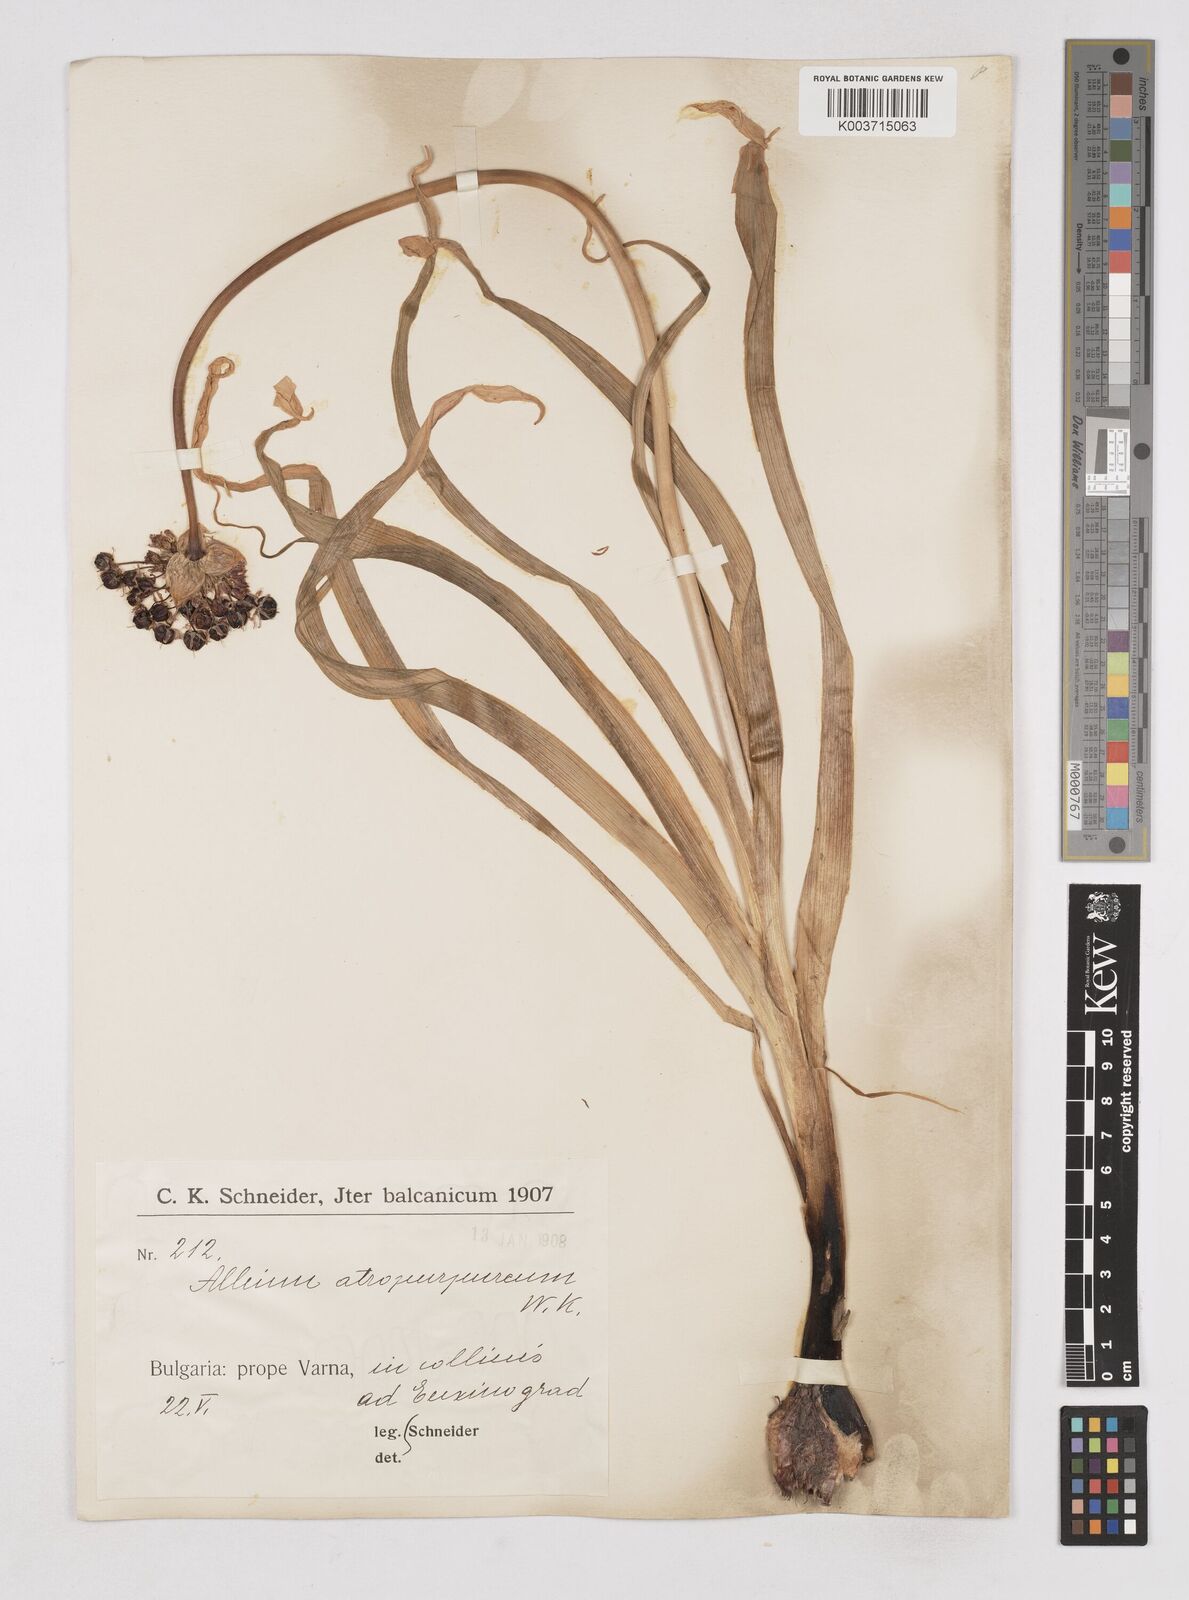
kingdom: Plantae
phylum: Tracheophyta
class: Liliopsida
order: Asparagales
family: Amaryllidaceae
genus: Allium
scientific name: Allium atropurpureum
